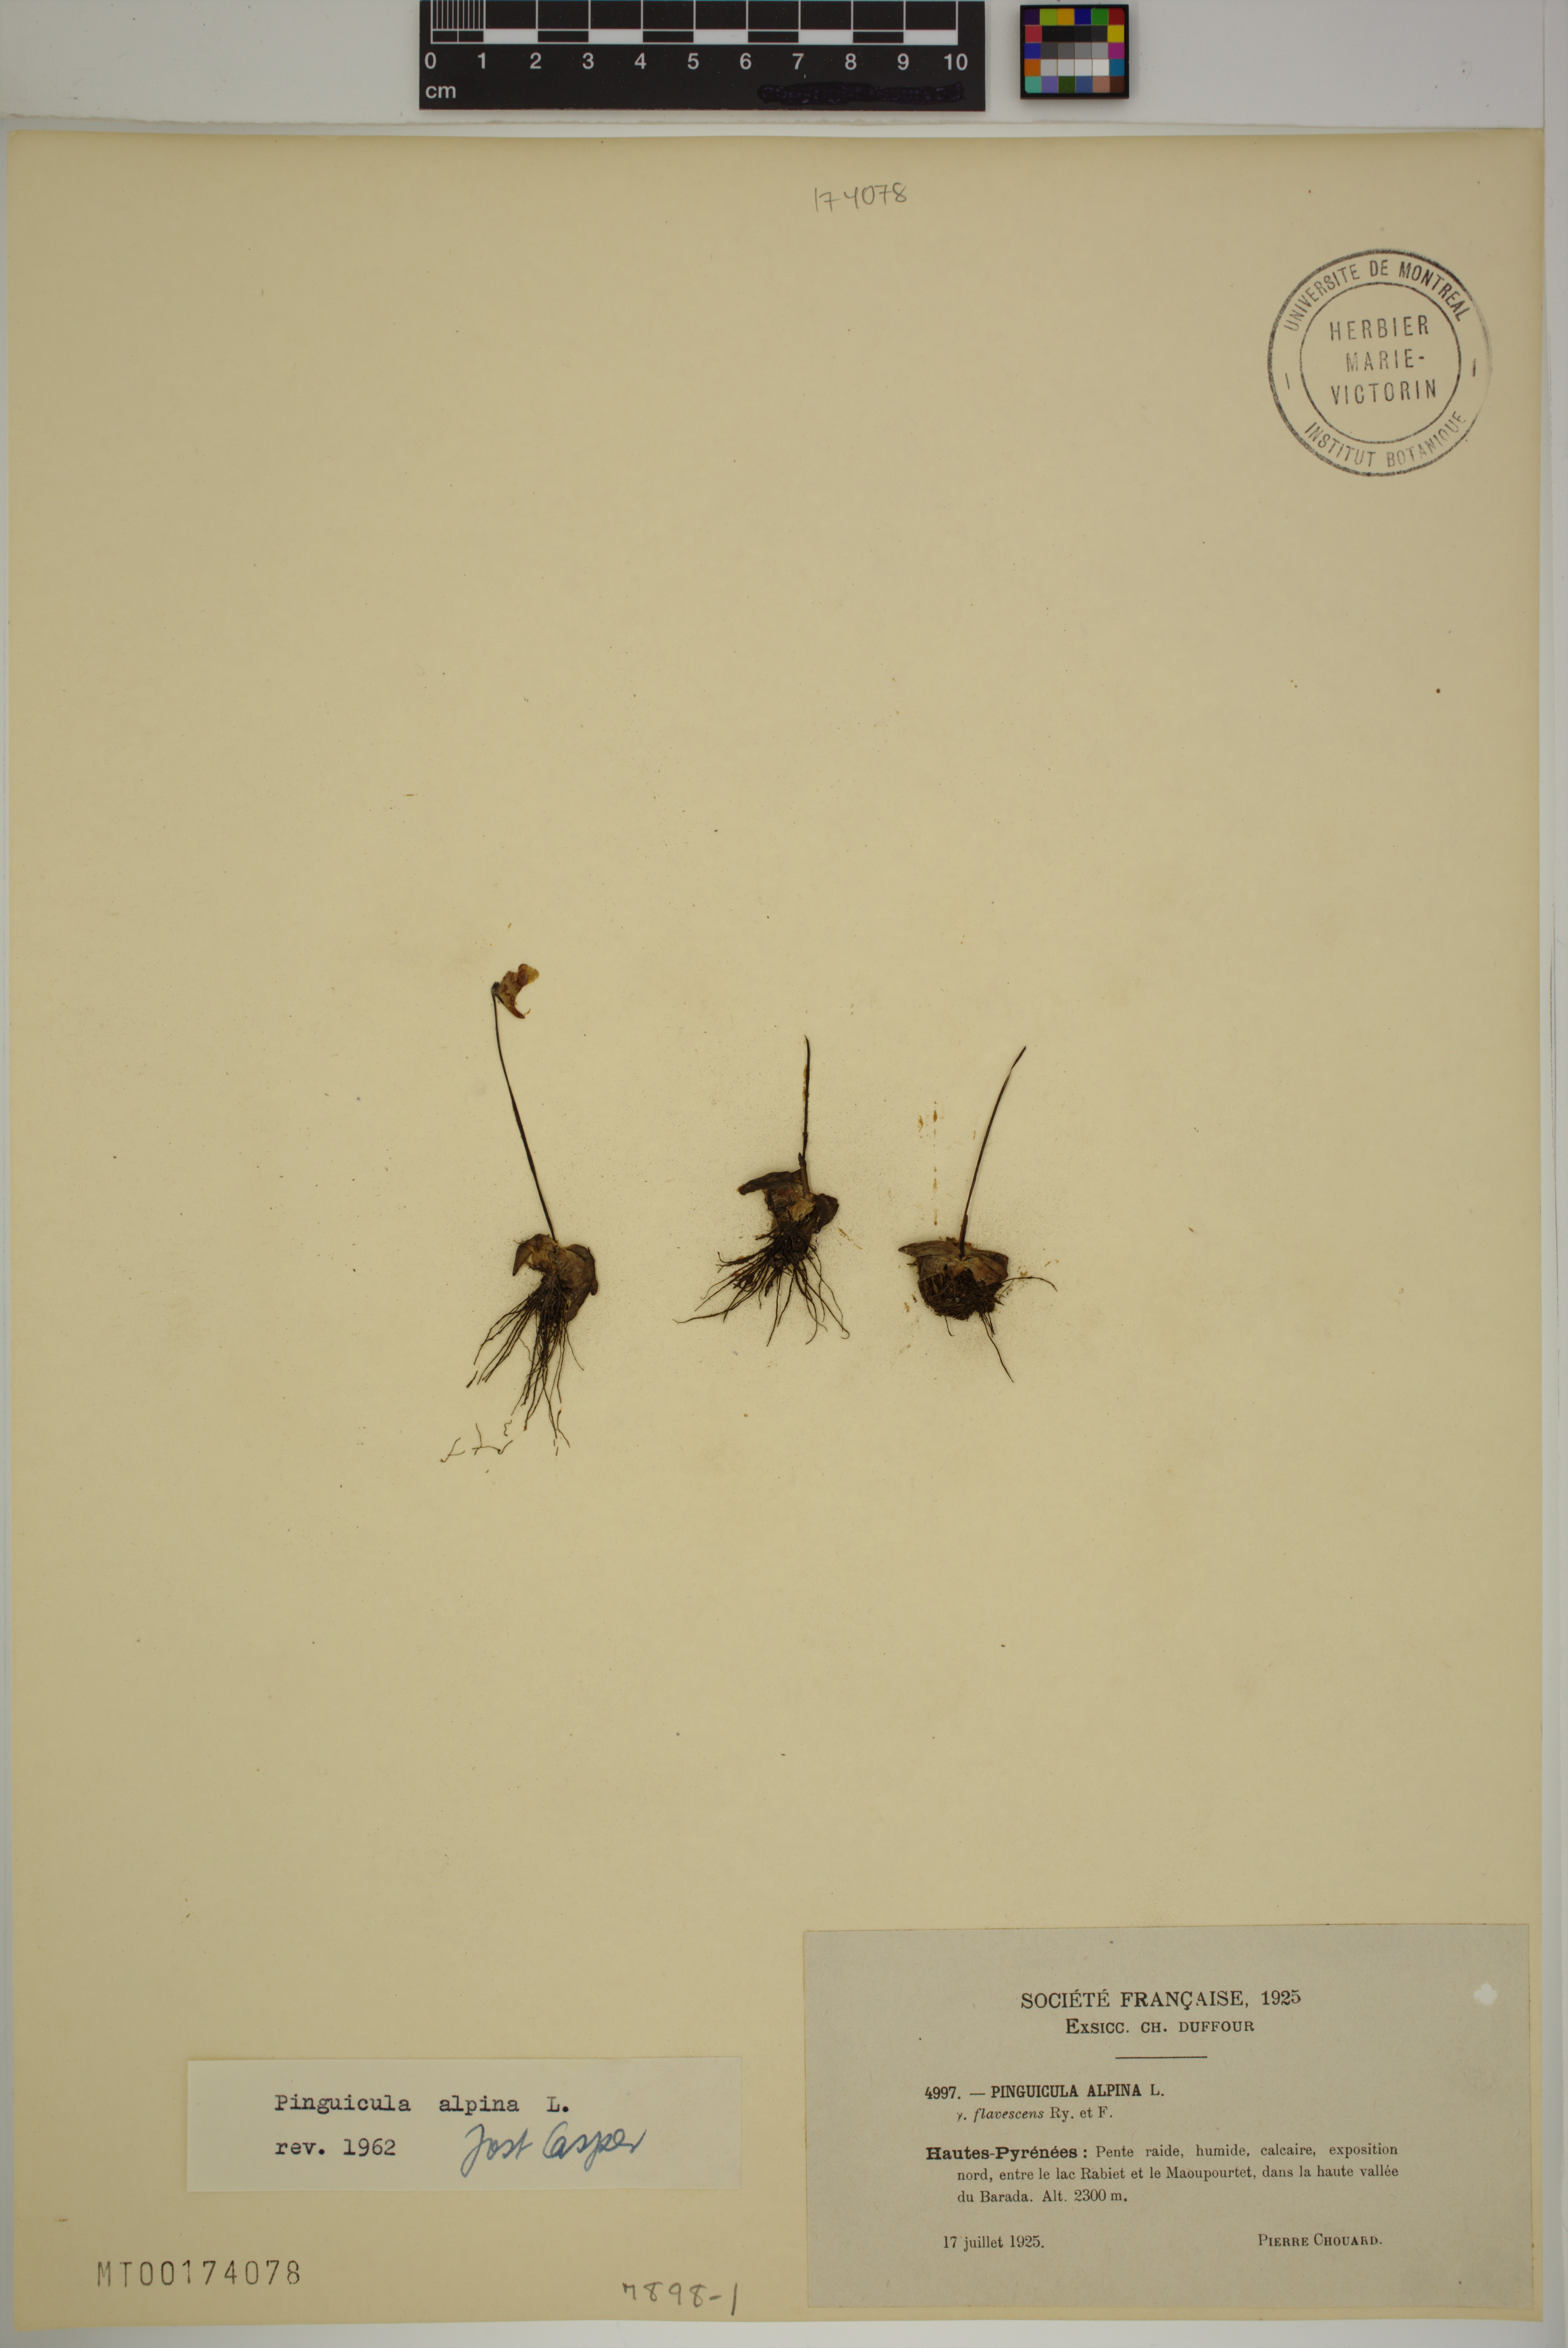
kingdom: Plantae
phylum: Tracheophyta
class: Magnoliopsida
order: Lamiales
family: Lentibulariaceae
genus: Pinguicula
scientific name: Pinguicula alpina
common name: Alpine butterwort
